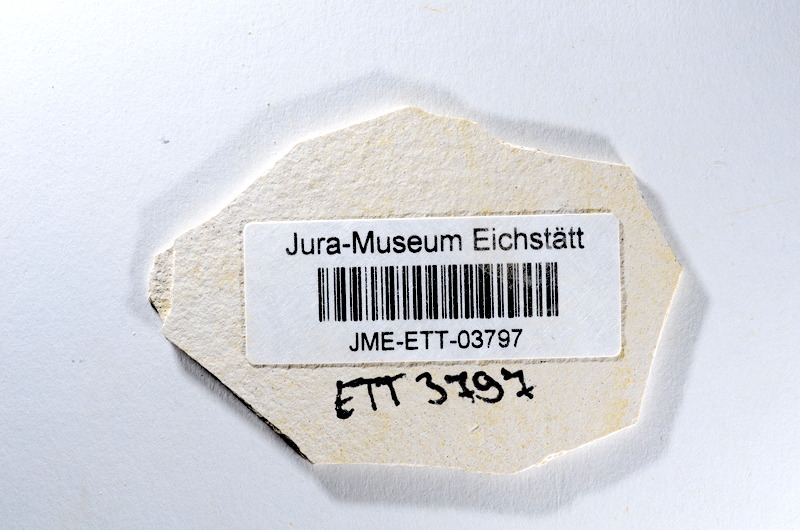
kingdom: Animalia
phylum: Chordata
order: Salmoniformes
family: Orthogonikleithridae
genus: Orthogonikleithrus
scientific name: Orthogonikleithrus hoelli
